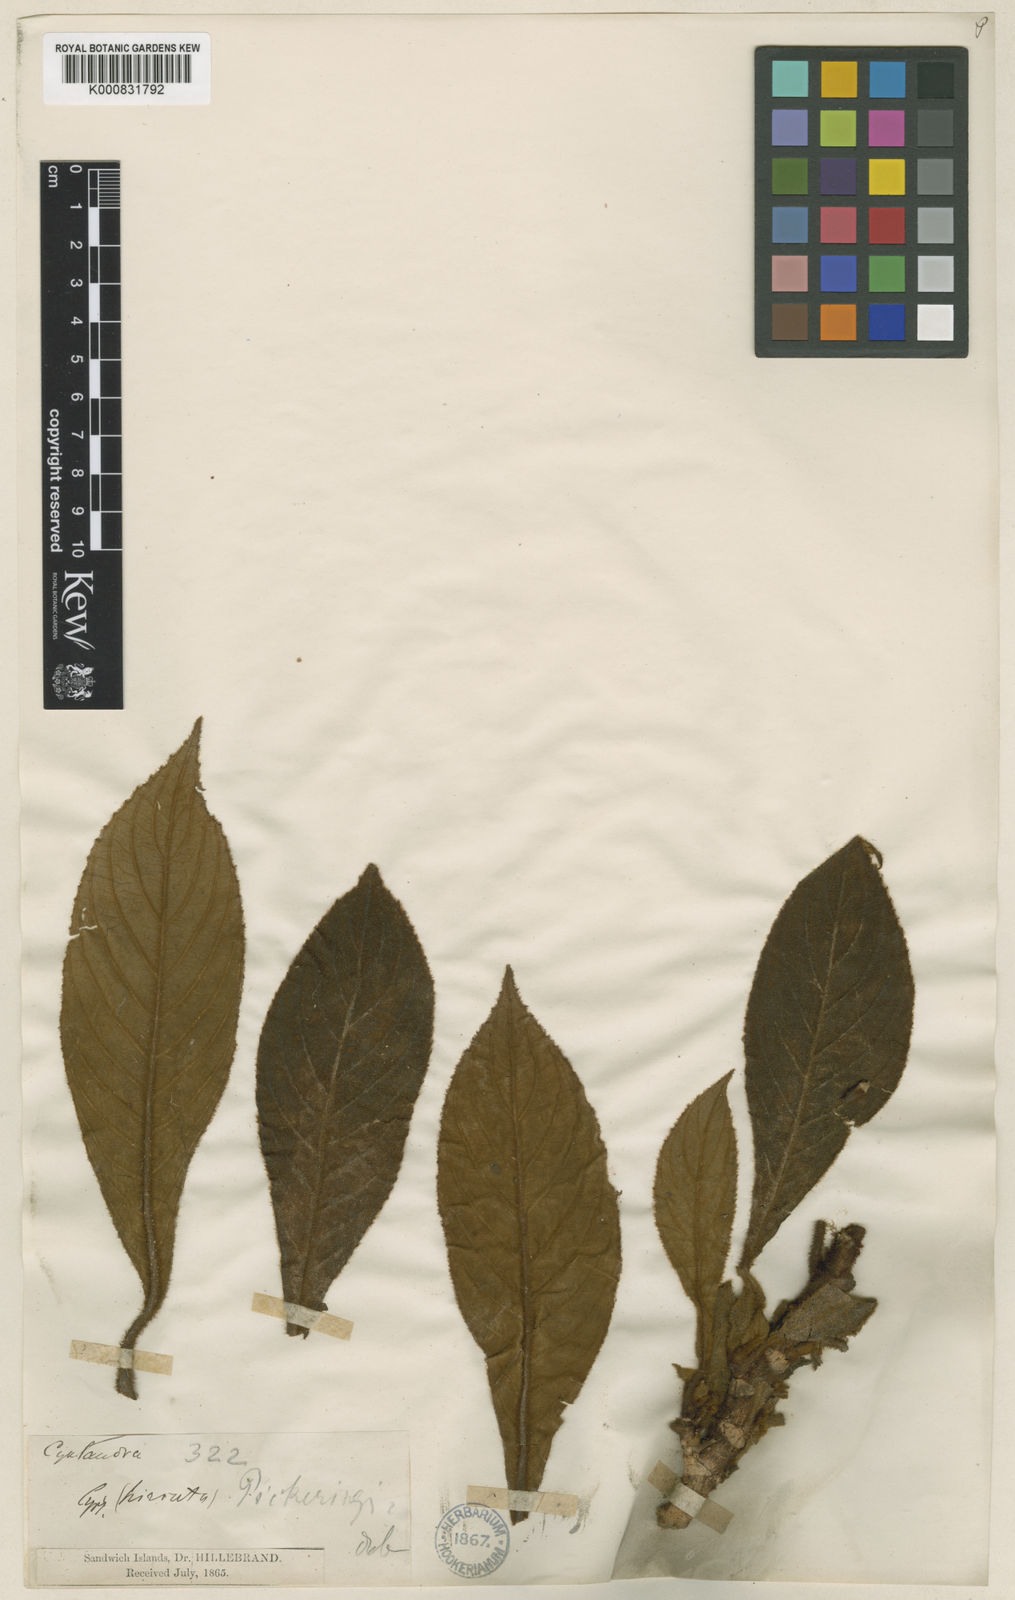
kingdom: Plantae
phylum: Tracheophyta
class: Magnoliopsida
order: Lamiales
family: Gesneriaceae
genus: Cyrtandra
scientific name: Cyrtandra pickeringii
